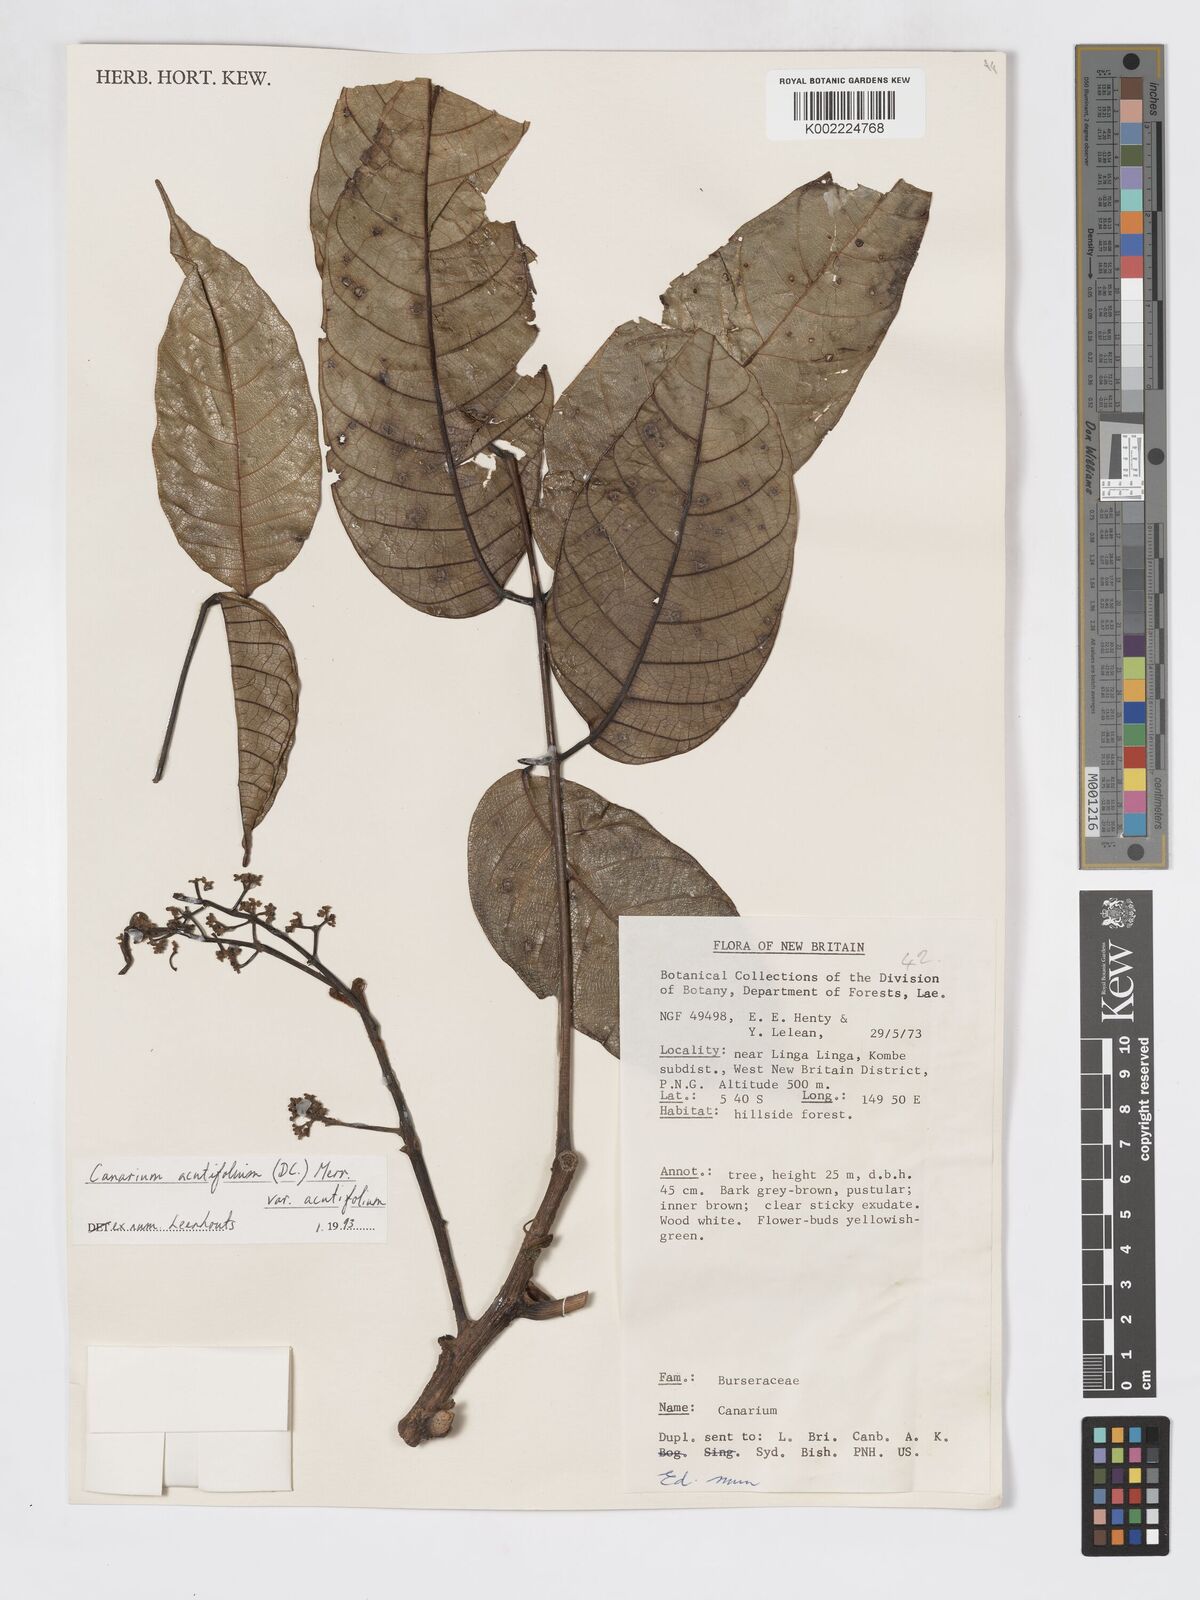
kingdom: Plantae
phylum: Tracheophyta
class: Magnoliopsida
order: Sapindales
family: Burseraceae
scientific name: Burseraceae
